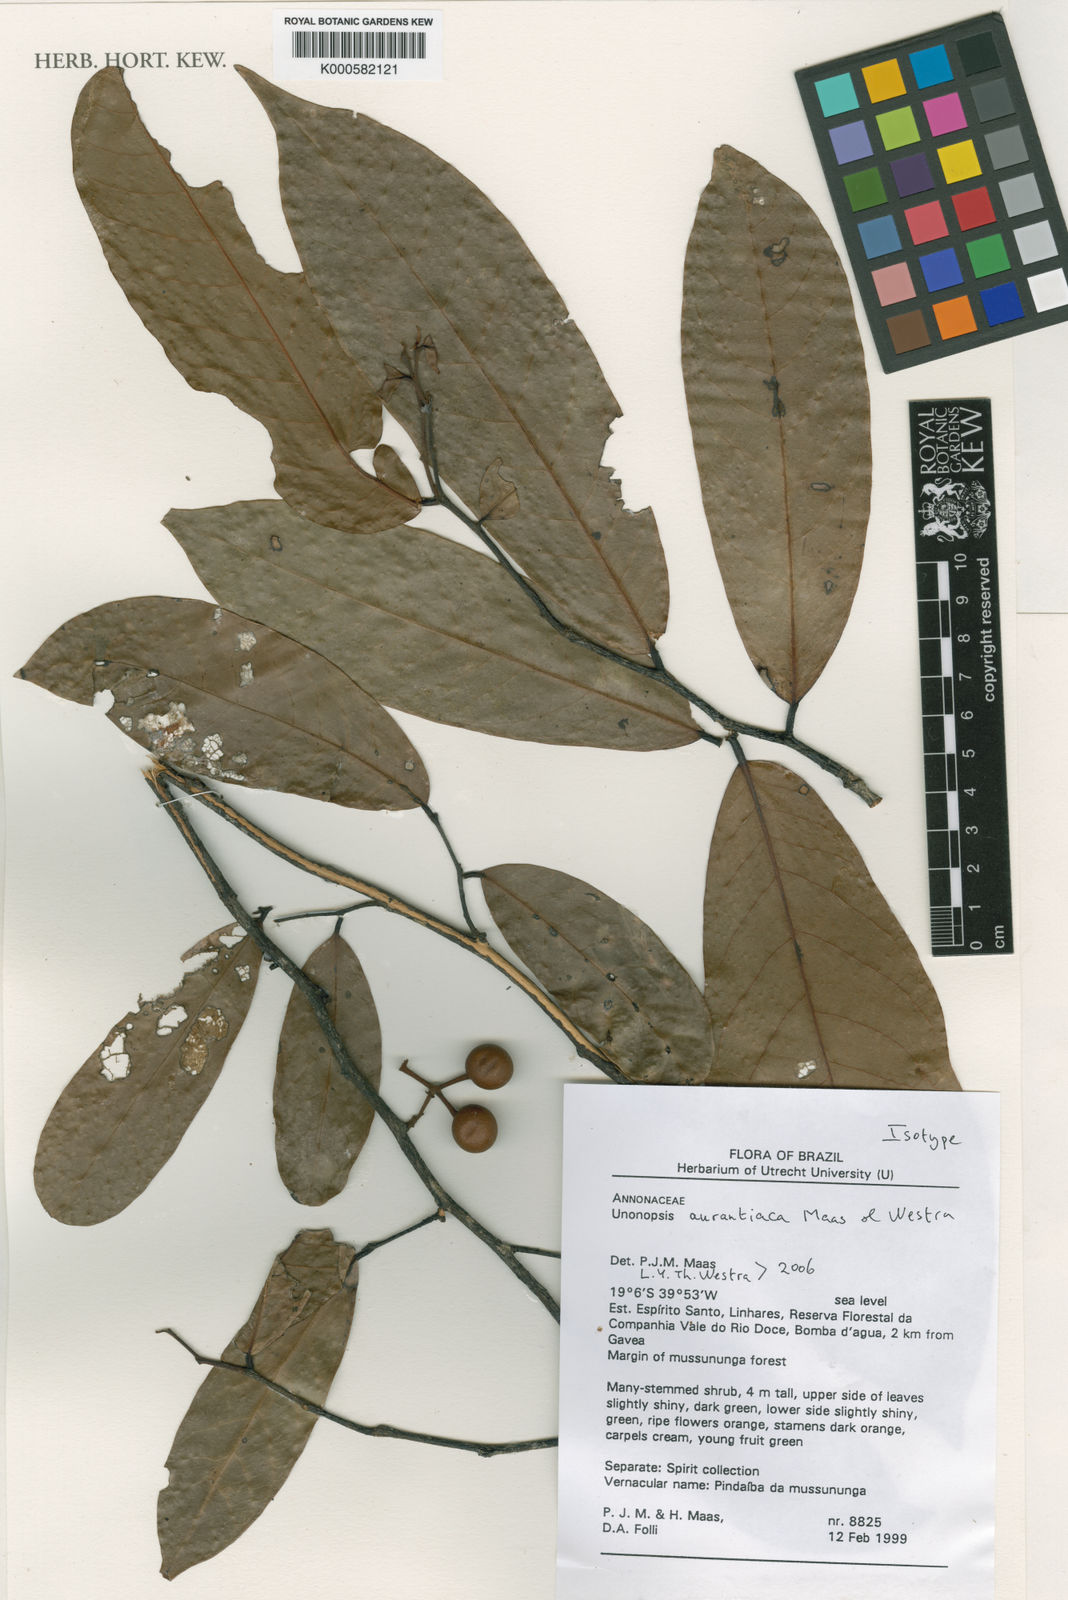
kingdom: Plantae
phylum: Tracheophyta
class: Magnoliopsida
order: Magnoliales
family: Annonaceae
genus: Unonopsis
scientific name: Unonopsis aurantiaca
